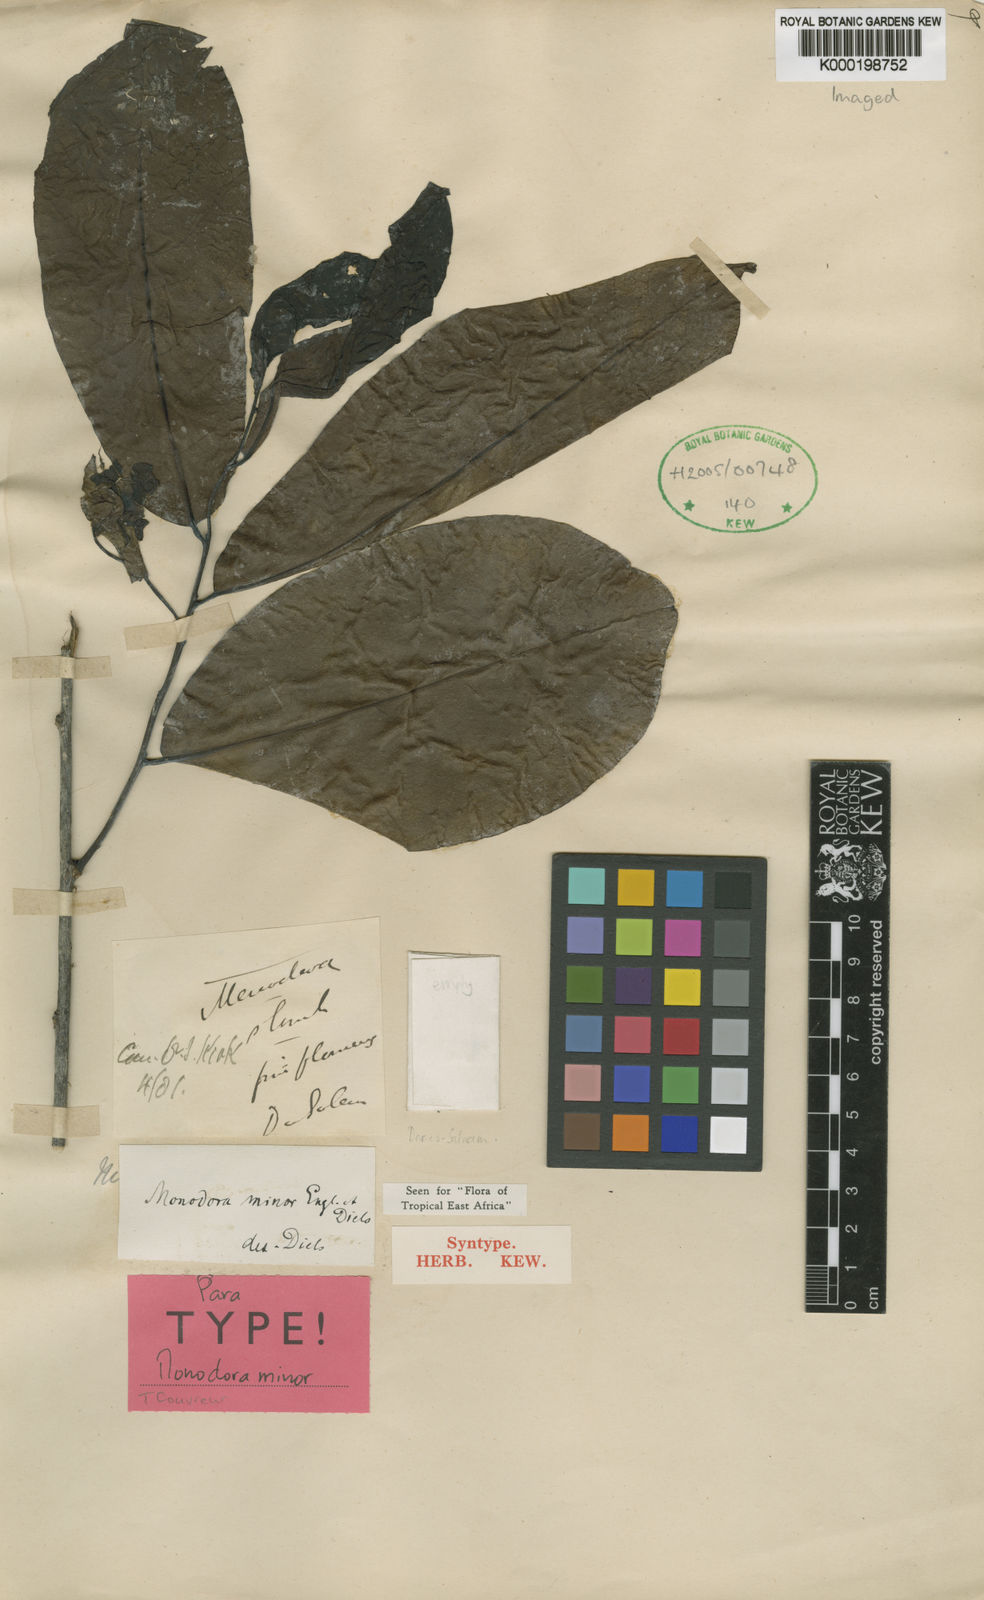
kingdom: Plantae
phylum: Tracheophyta
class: Magnoliopsida
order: Magnoliales
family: Annonaceae
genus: Monodora
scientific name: Monodora minor
